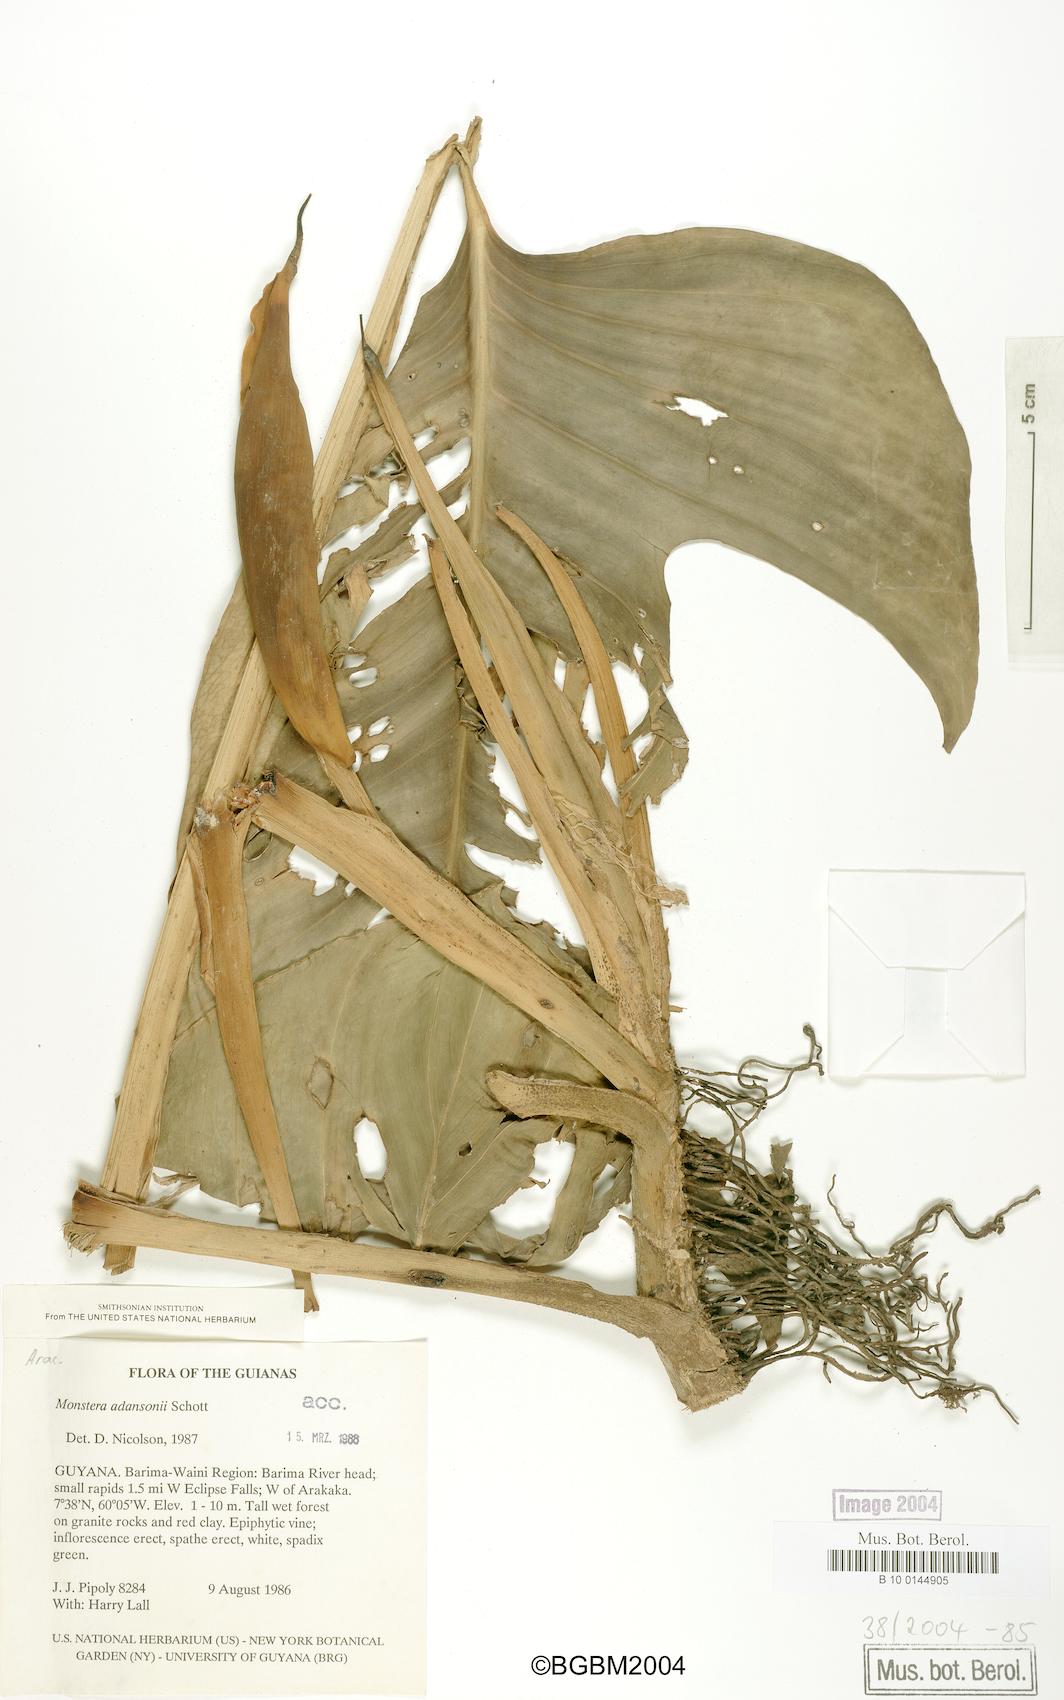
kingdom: Plantae
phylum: Tracheophyta
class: Liliopsida
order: Alismatales
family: Araceae
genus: Monstera
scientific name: Monstera adansonii
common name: Tarovine
